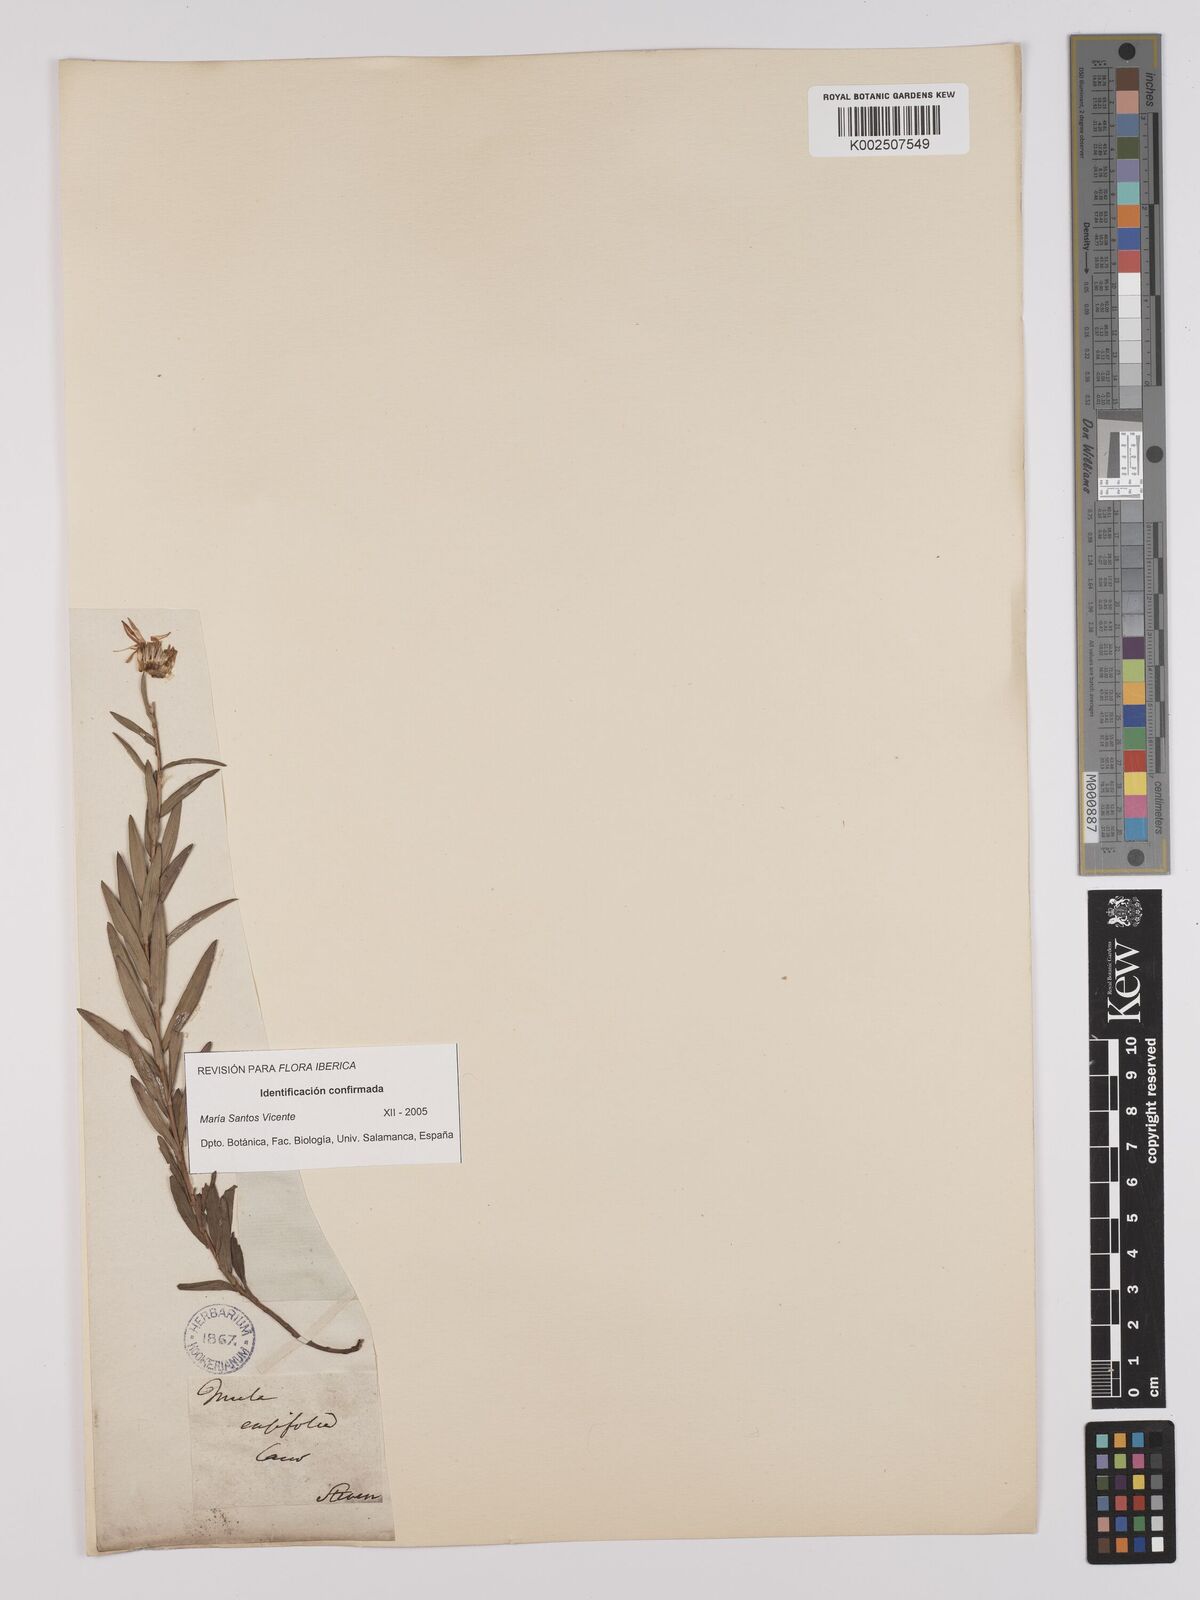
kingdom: Plantae
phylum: Tracheophyta
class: Magnoliopsida
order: Asterales
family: Asteraceae
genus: Pentanema
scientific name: Pentanema ensifolium
